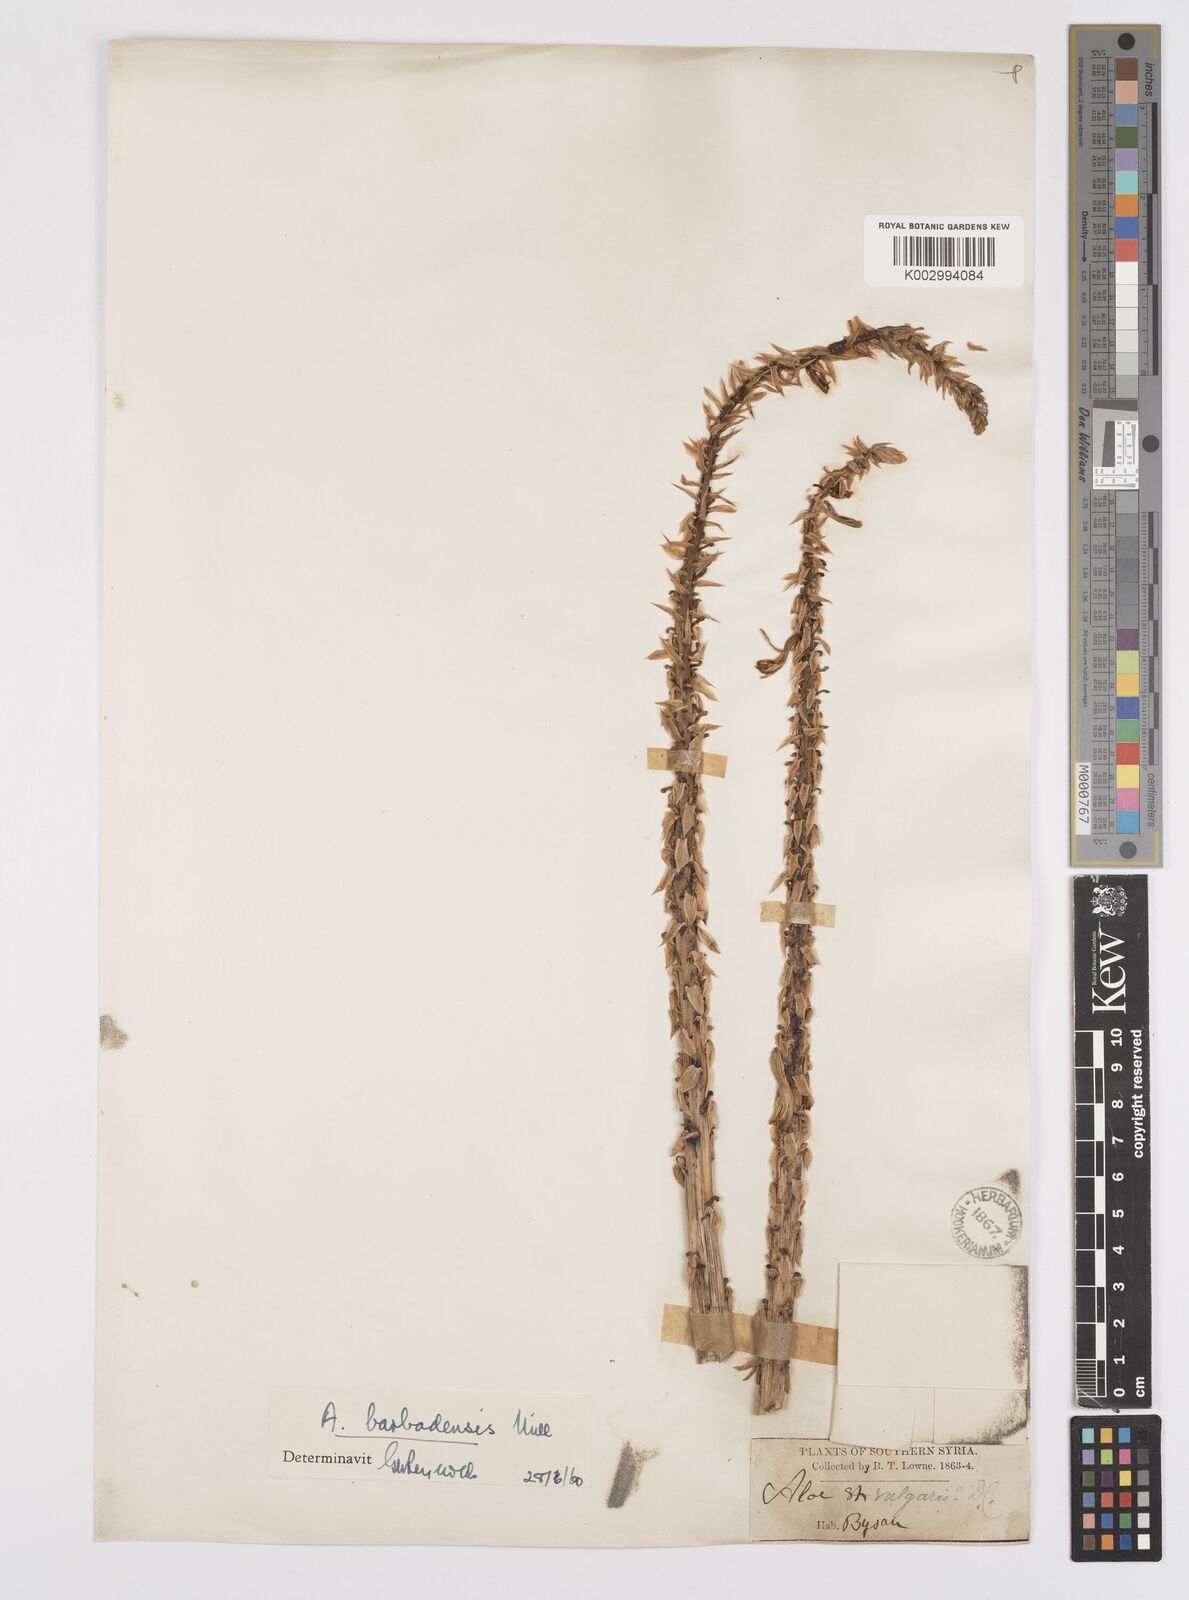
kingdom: Plantae
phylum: Tracheophyta
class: Liliopsida
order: Asparagales
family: Asphodelaceae
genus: Aloe
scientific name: Aloe vera
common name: Barbados aloe
